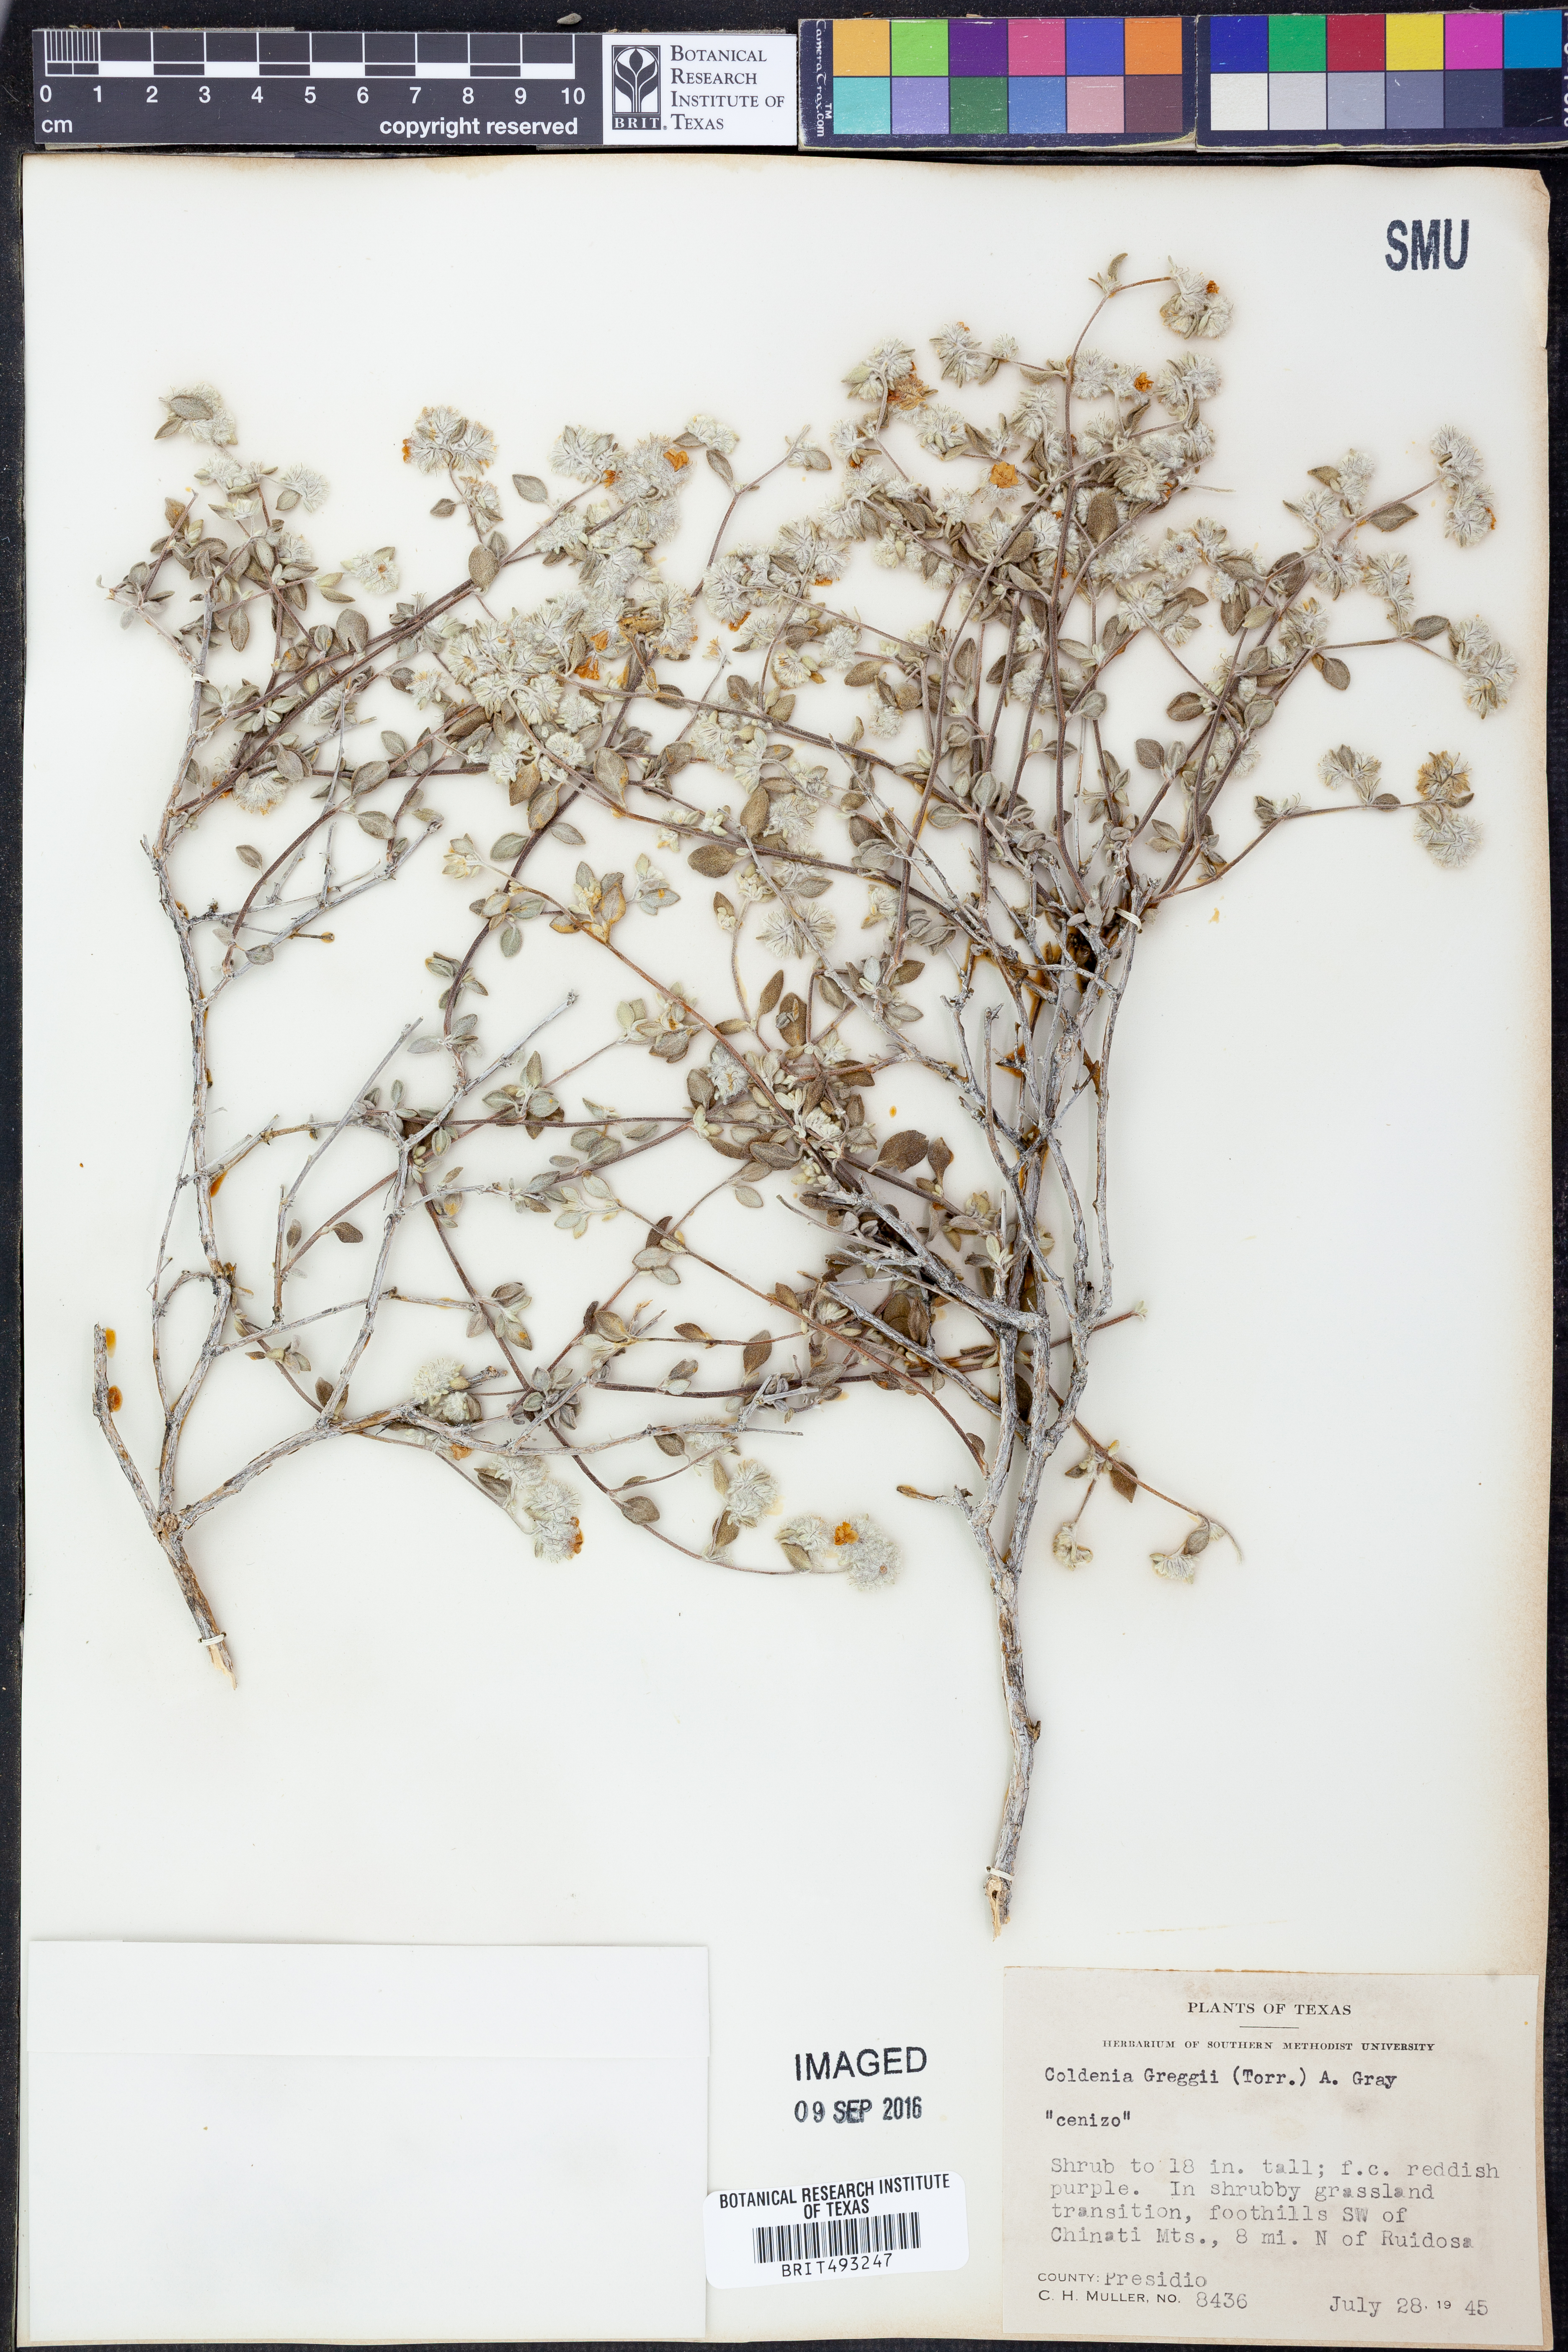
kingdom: Plantae
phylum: Tracheophyta
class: Magnoliopsida
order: Boraginales
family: Ehretiaceae
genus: Tiquilia
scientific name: Tiquilia greggii
